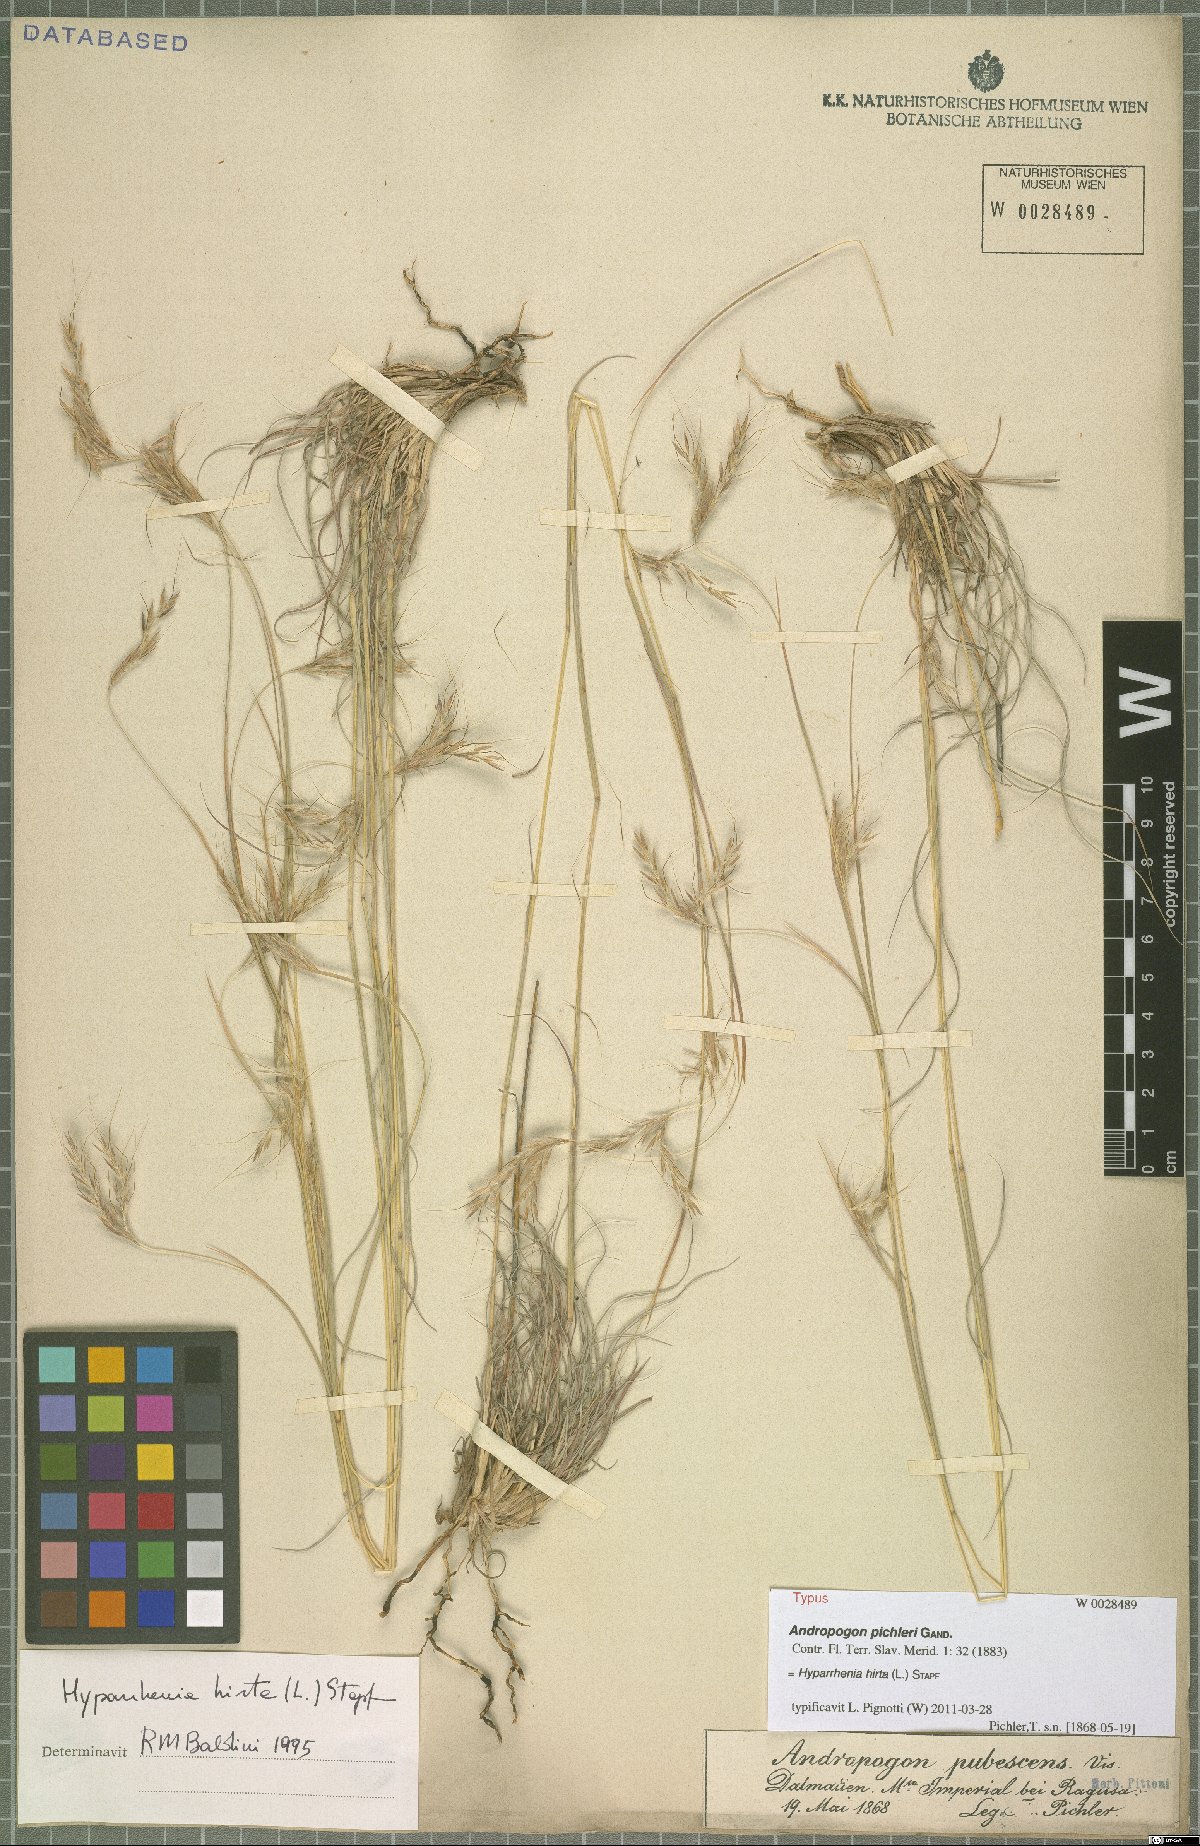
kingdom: Plantae
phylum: Tracheophyta
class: Liliopsida
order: Poales
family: Poaceae
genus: Hyparrhenia
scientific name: Hyparrhenia hirta
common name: Thatching grass
